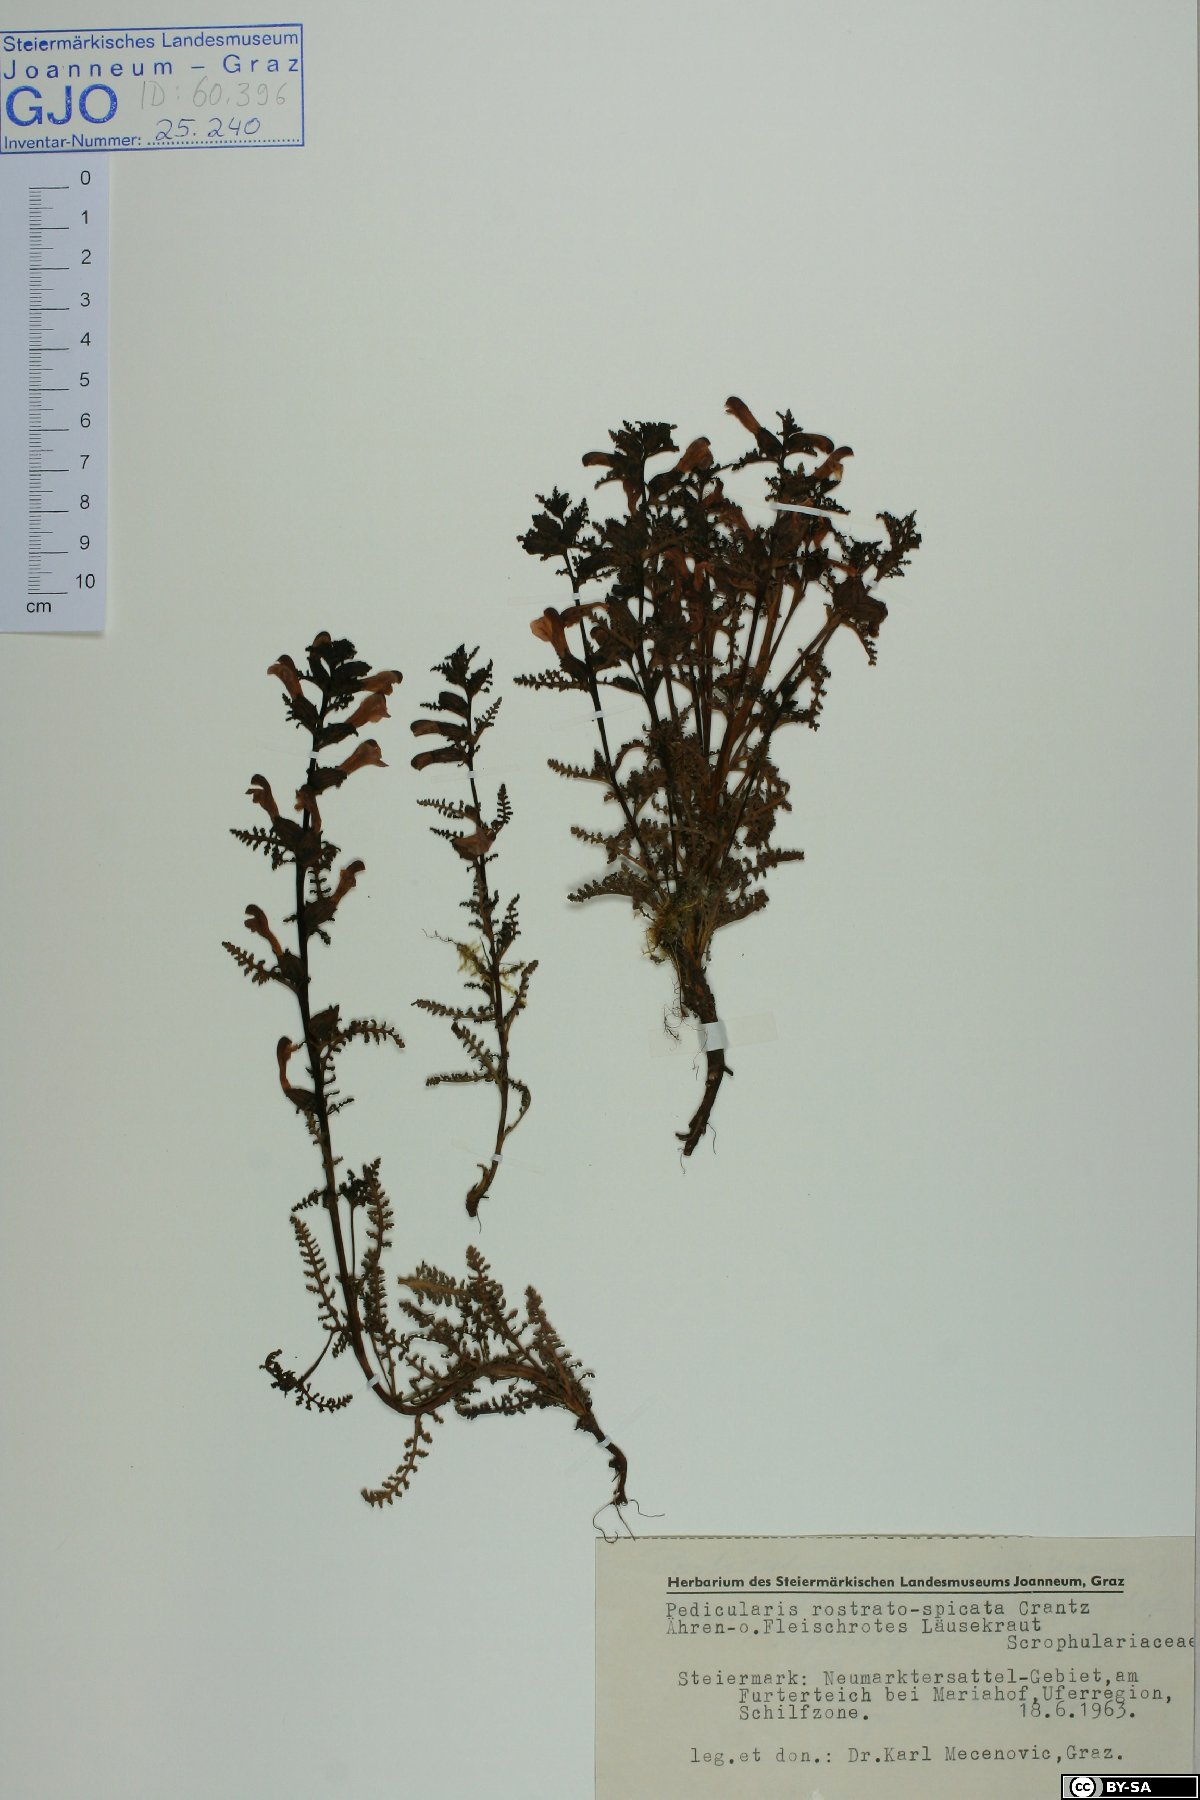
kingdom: Plantae
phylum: Tracheophyta
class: Magnoliopsida
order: Lamiales
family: Orobanchaceae
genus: Pedicularis
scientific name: Pedicularis palustris
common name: Marsh lousewort
